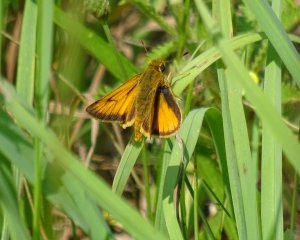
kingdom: Animalia
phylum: Arthropoda
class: Insecta
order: Lepidoptera
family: Hesperiidae
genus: Atrytone
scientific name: Atrytone delaware
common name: Delaware Skipper
